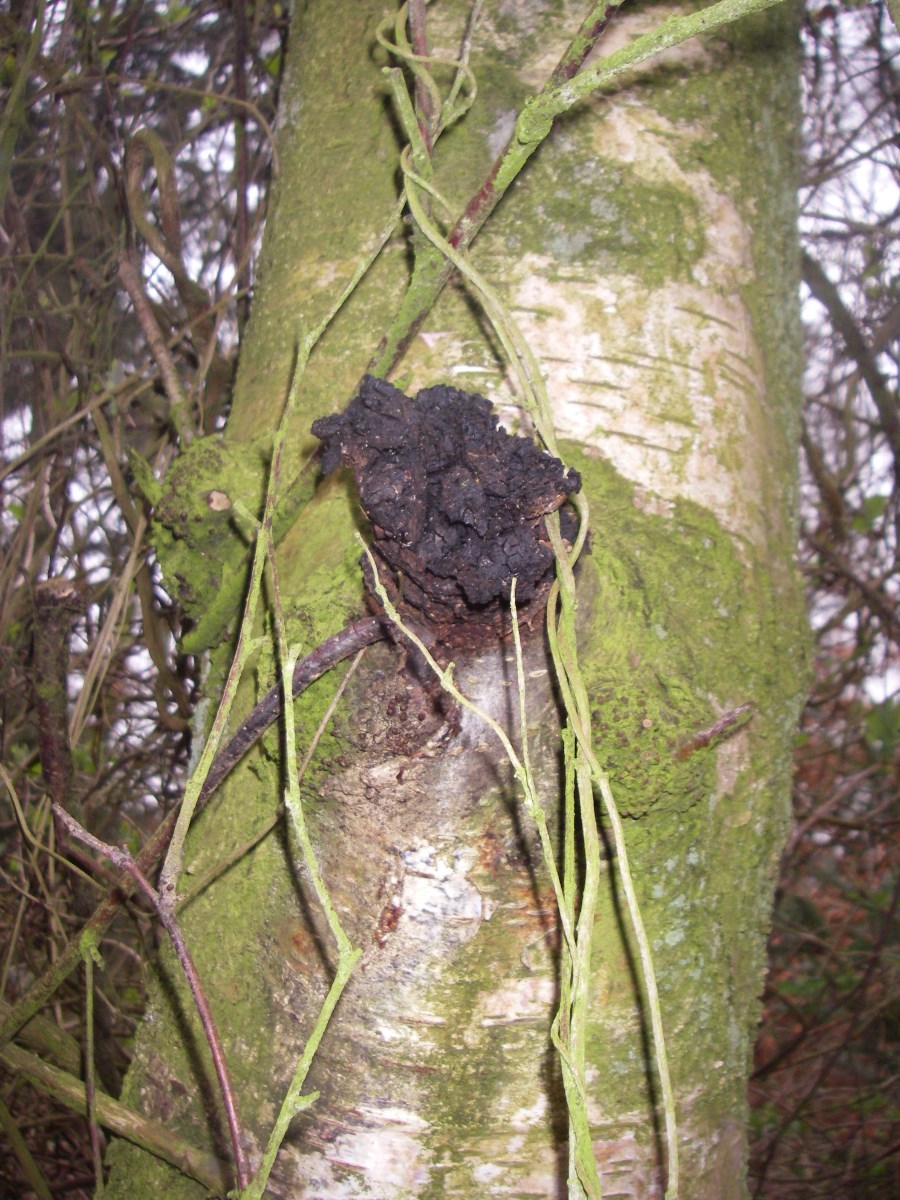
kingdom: Fungi
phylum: Basidiomycota
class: Agaricomycetes
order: Hymenochaetales
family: Hymenochaetaceae
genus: Inonotus
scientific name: Inonotus obliquus
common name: birke-spejlporesvamp
